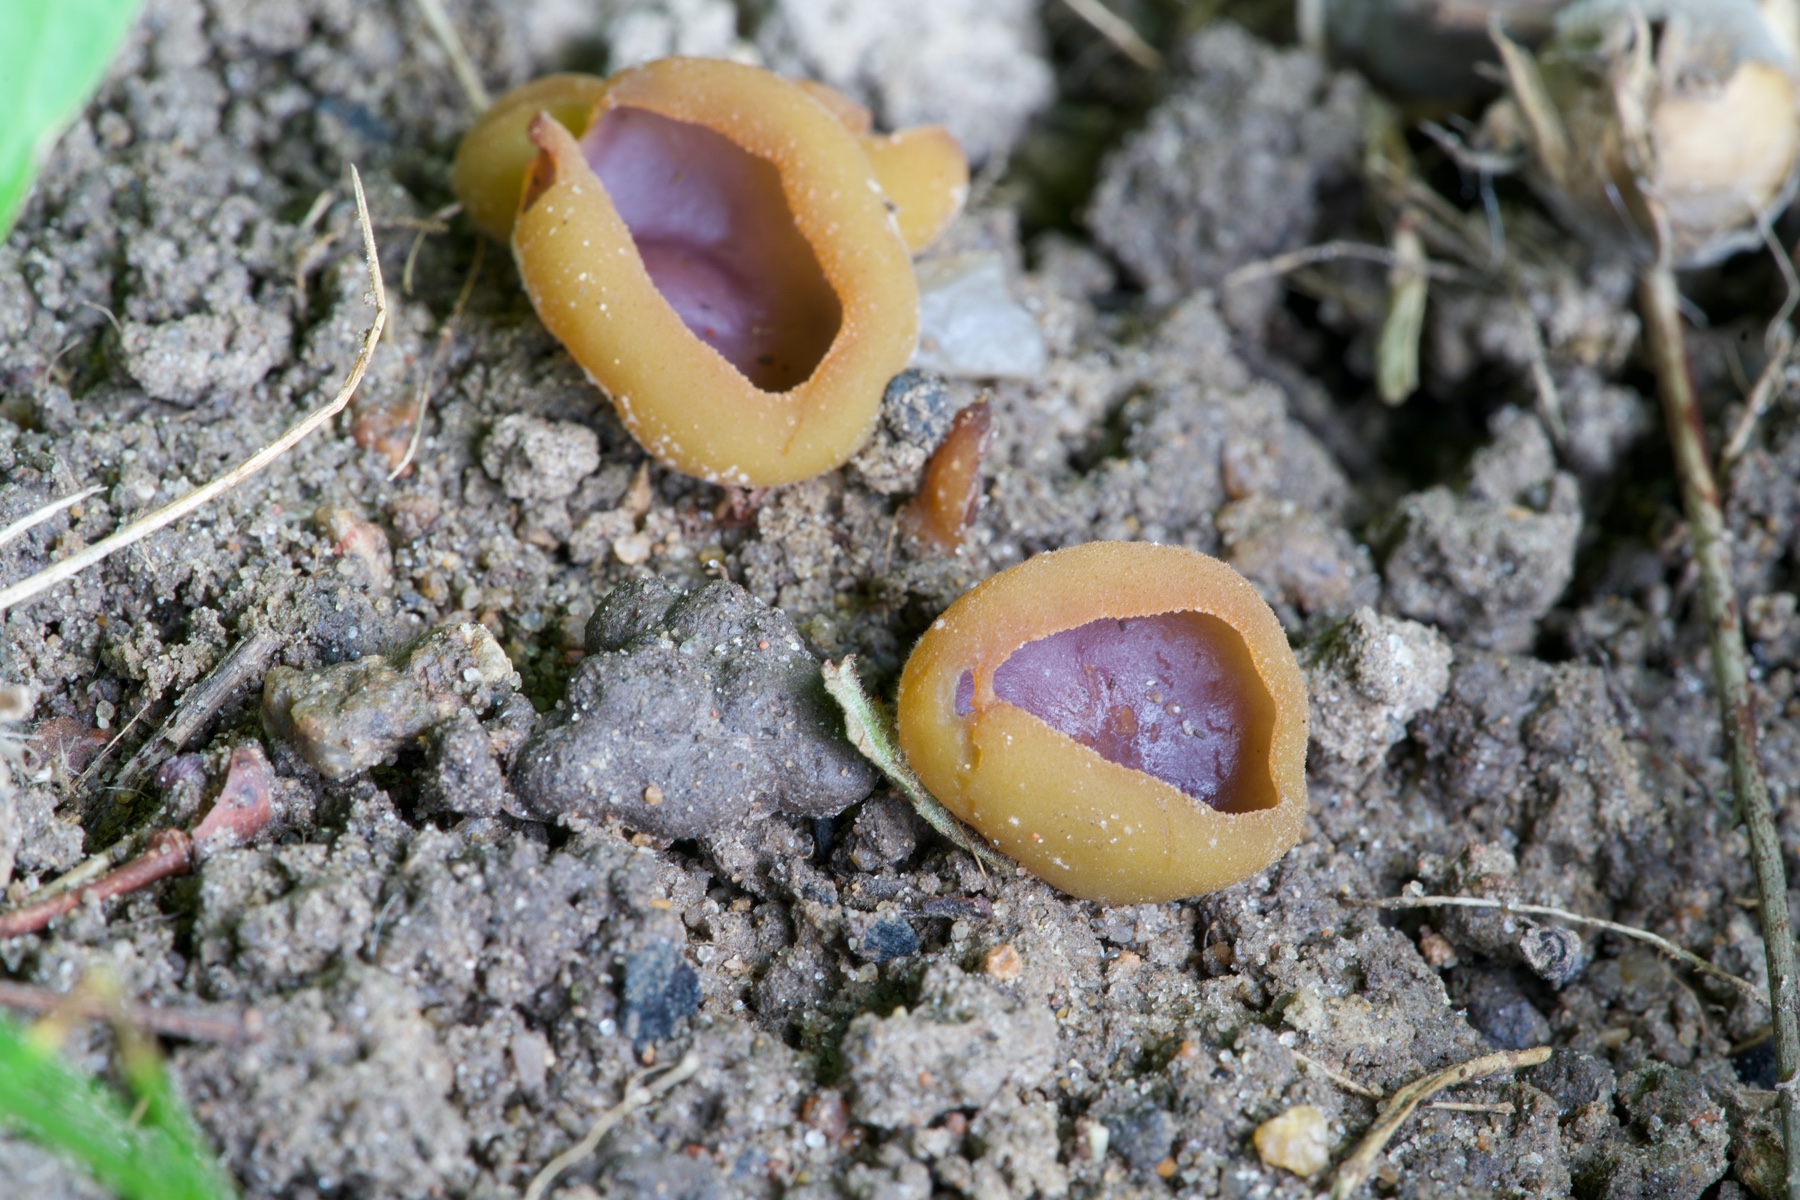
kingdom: Fungi
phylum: Ascomycota
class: Pezizomycetes
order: Pezizales
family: Pezizaceae
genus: Paragalactinia
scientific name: Paragalactinia michelii
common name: gulkødet bægersvamp
